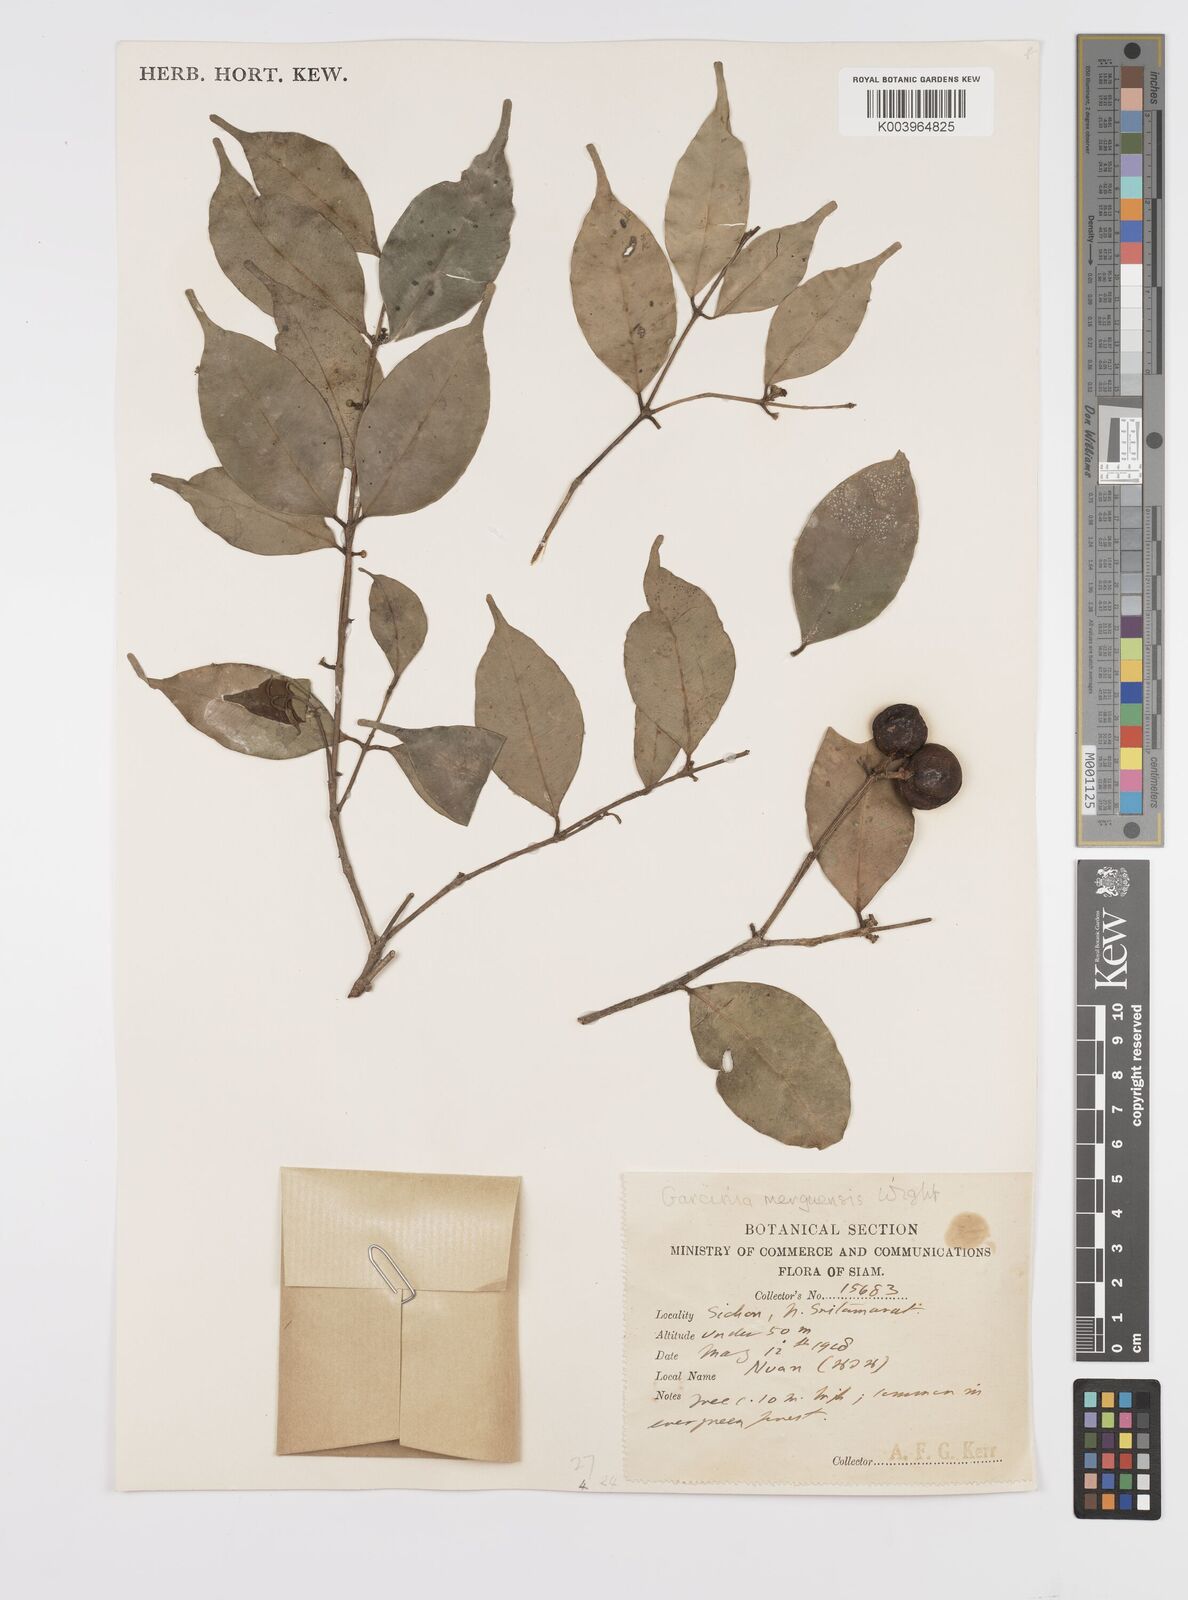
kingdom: Plantae
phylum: Tracheophyta
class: Magnoliopsida
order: Malpighiales
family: Clusiaceae
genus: Garcinia
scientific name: Garcinia
